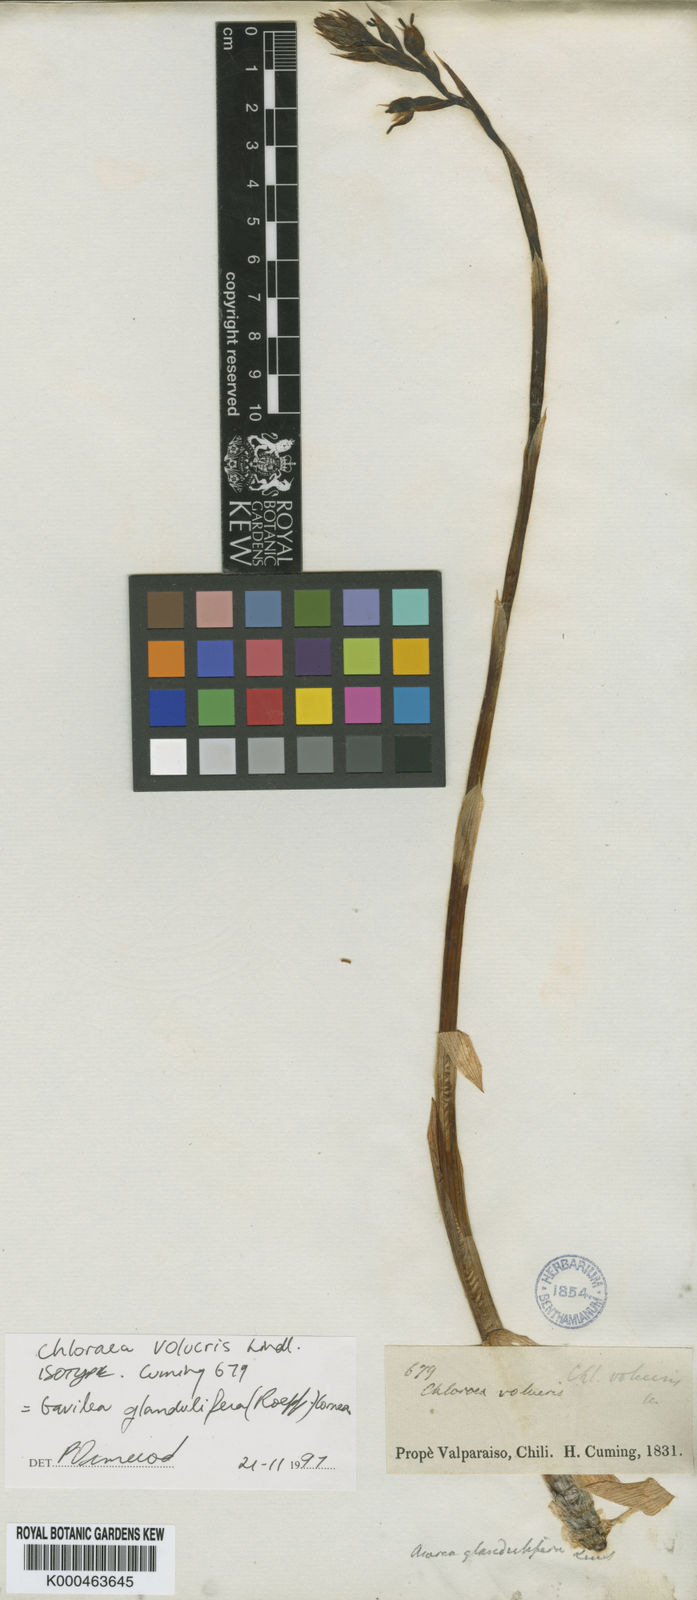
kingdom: Plantae
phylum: Tracheophyta
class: Liliopsida
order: Asparagales
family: Orchidaceae
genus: Gavilea
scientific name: Gavilea glandulifera
